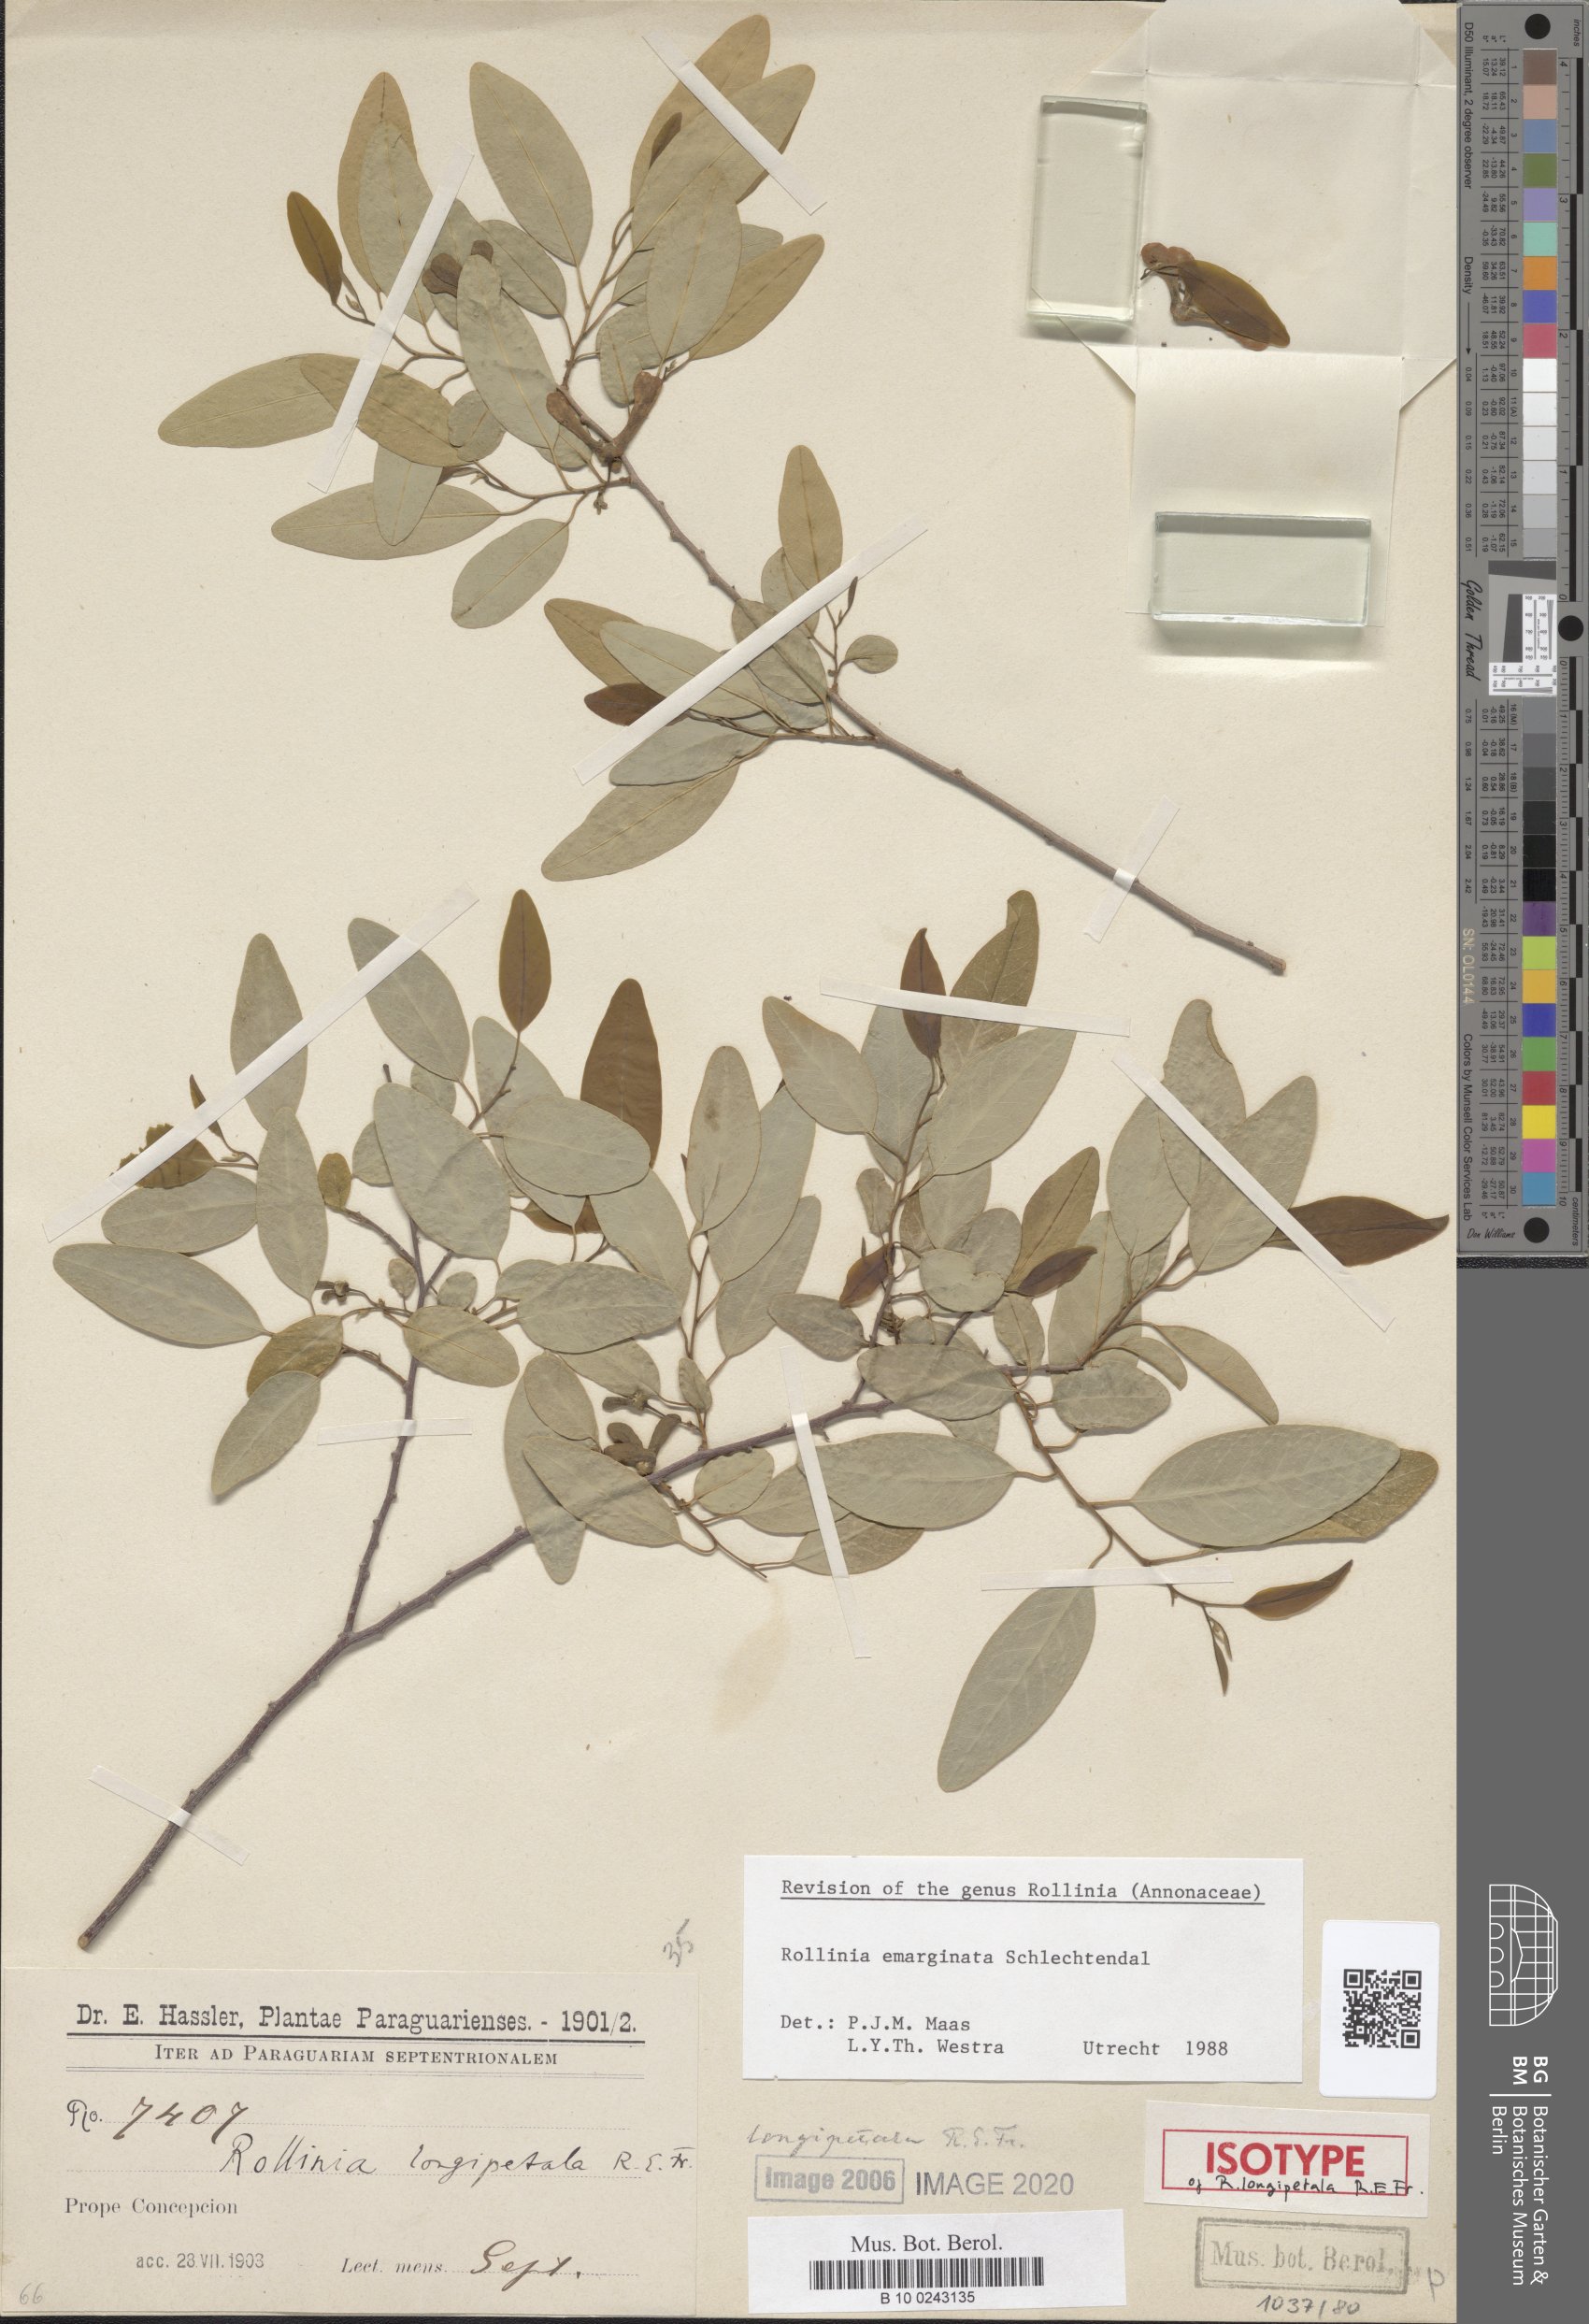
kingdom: Plantae
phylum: Tracheophyta
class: Magnoliopsida
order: Magnoliales
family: Annonaceae
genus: Annona
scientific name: Annona emarginata
